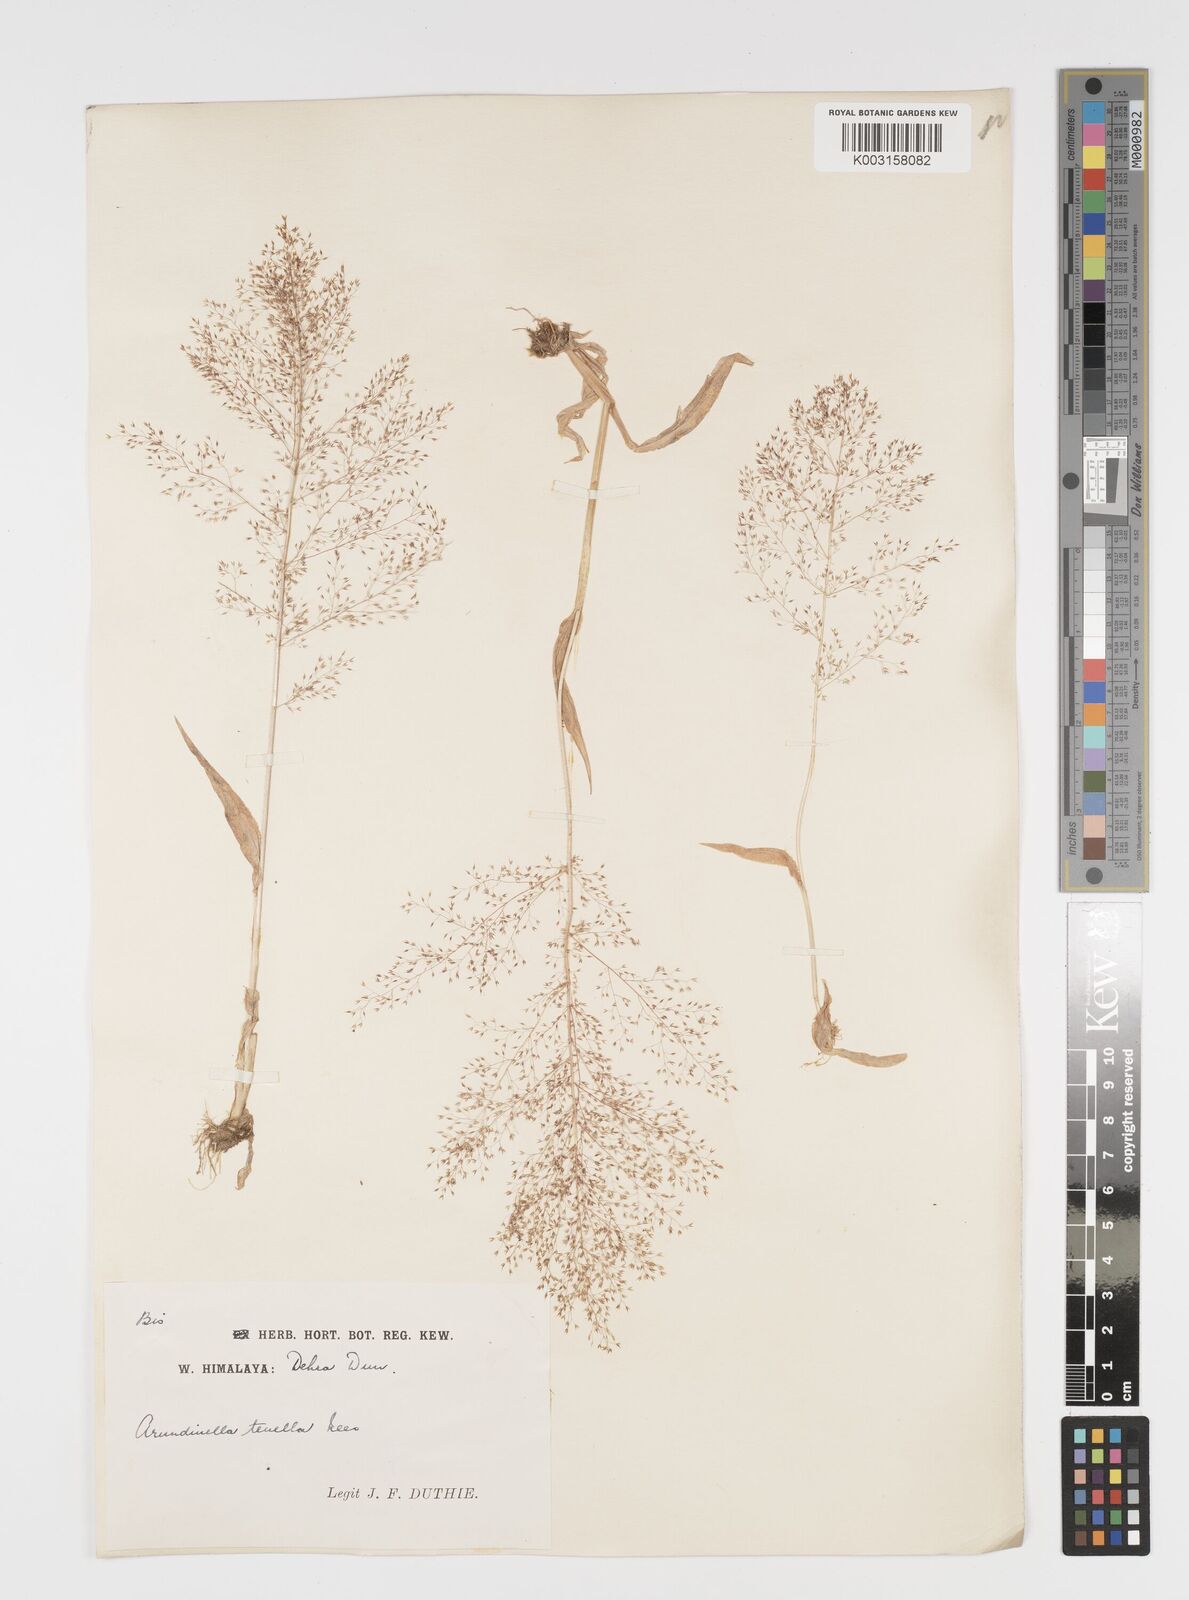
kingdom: Plantae
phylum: Tracheophyta
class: Liliopsida
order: Poales
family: Poaceae
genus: Arundinella
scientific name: Arundinella pumila
